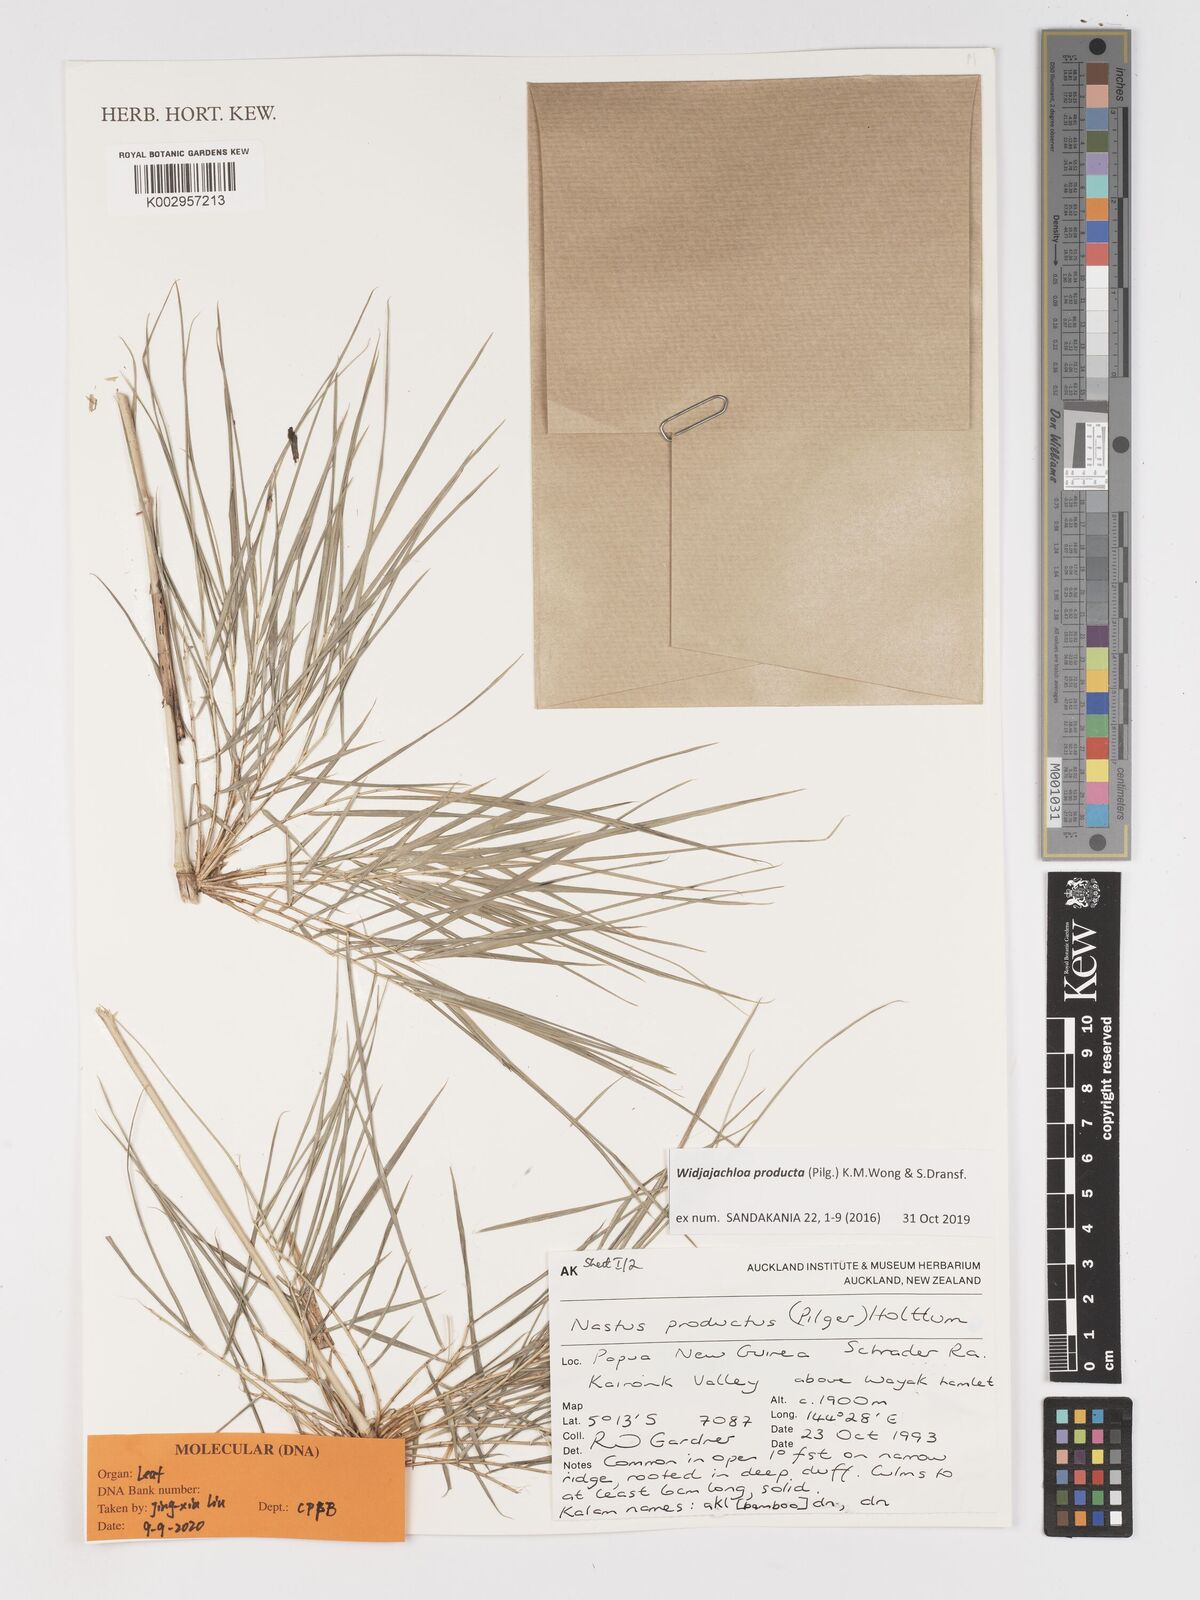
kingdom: Plantae
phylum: Tracheophyta
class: Liliopsida
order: Poales
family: Poaceae
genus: Widjajachloa
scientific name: Widjajachloa producta
